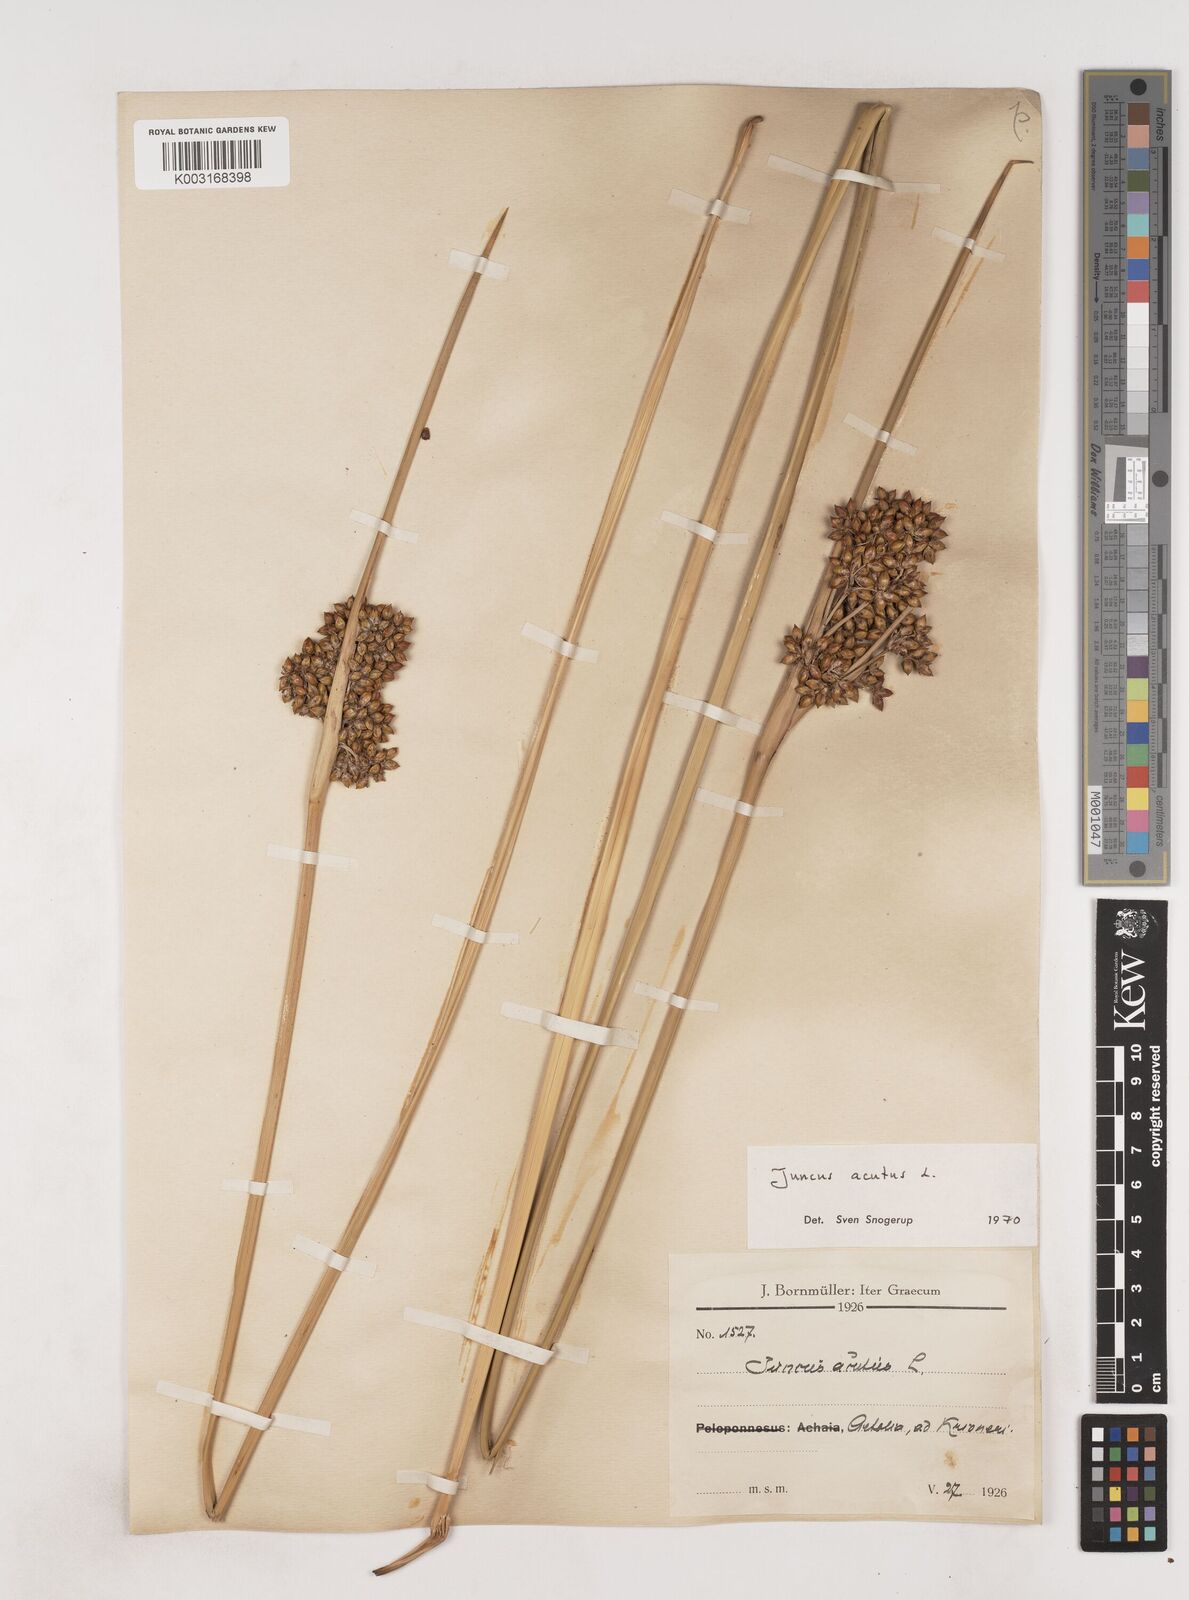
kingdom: Plantae
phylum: Tracheophyta
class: Liliopsida
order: Poales
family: Juncaceae
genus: Juncus
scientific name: Juncus acutus
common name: Sharp rush
